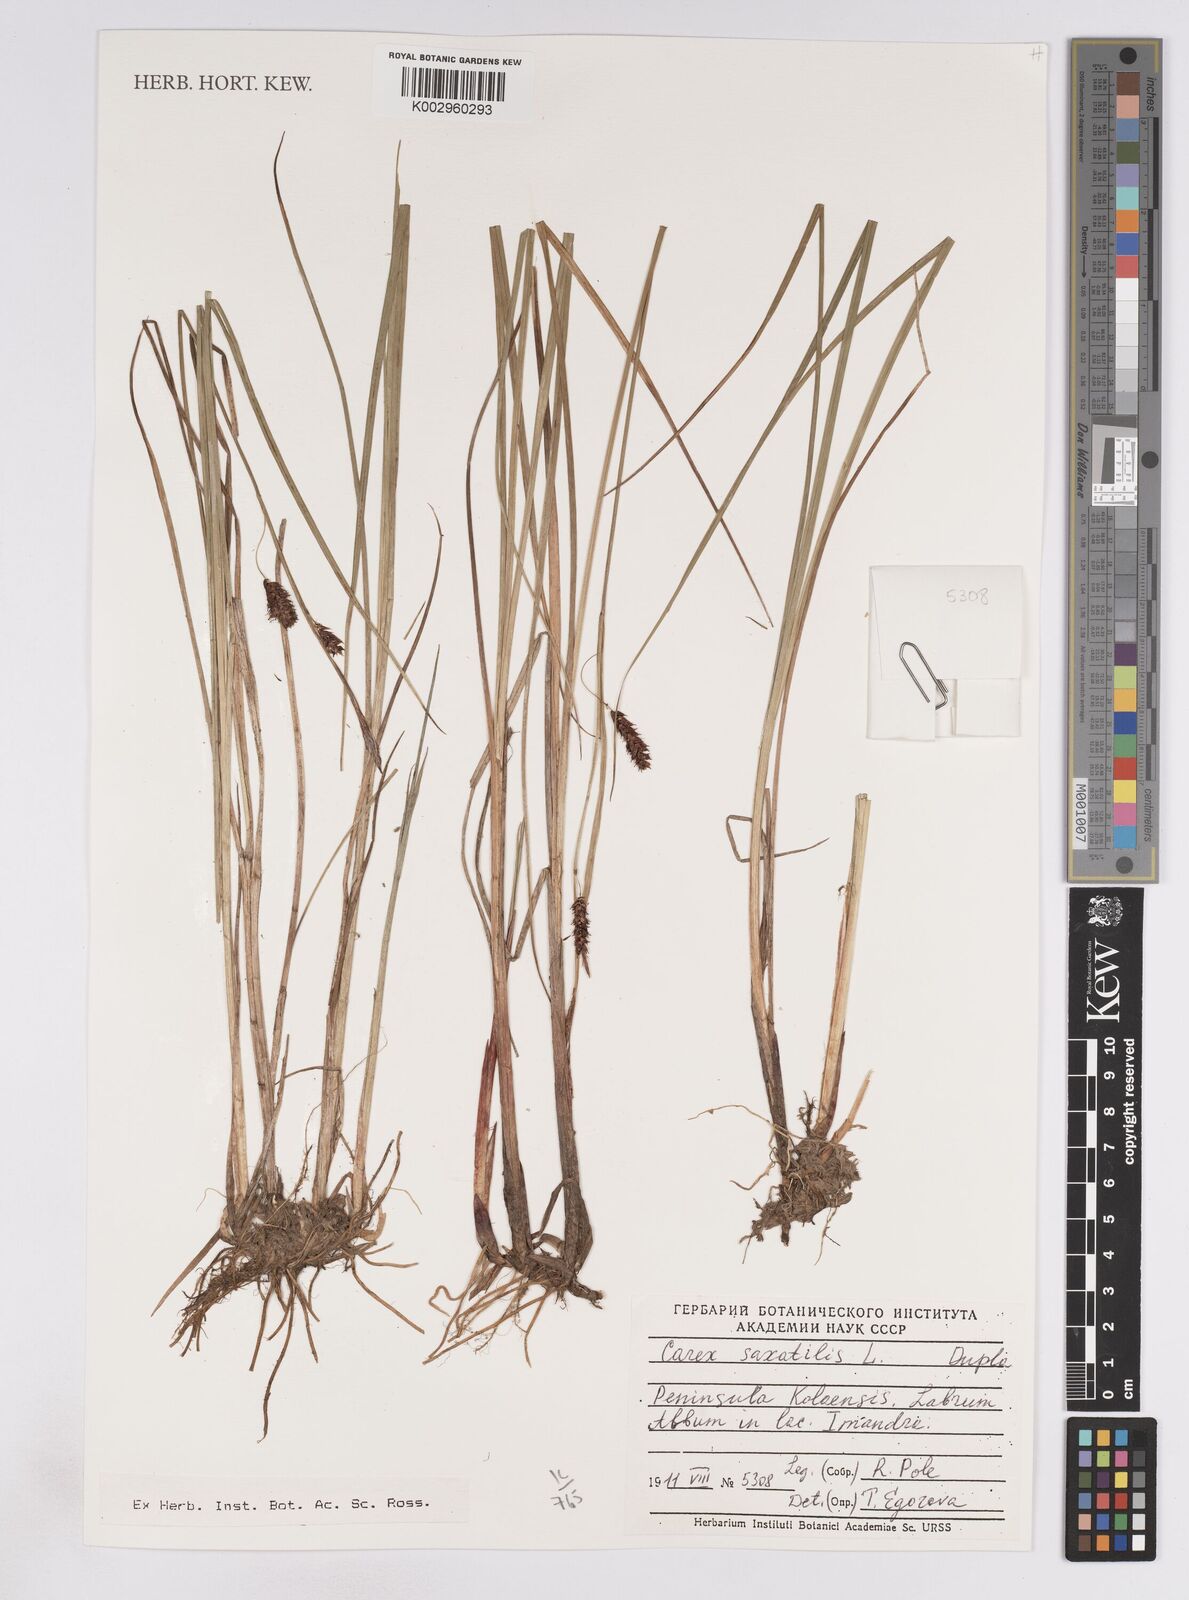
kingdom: Plantae
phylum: Tracheophyta
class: Liliopsida
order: Poales
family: Cyperaceae
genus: Carex
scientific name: Carex vesicaria
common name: Bladder-sedge
